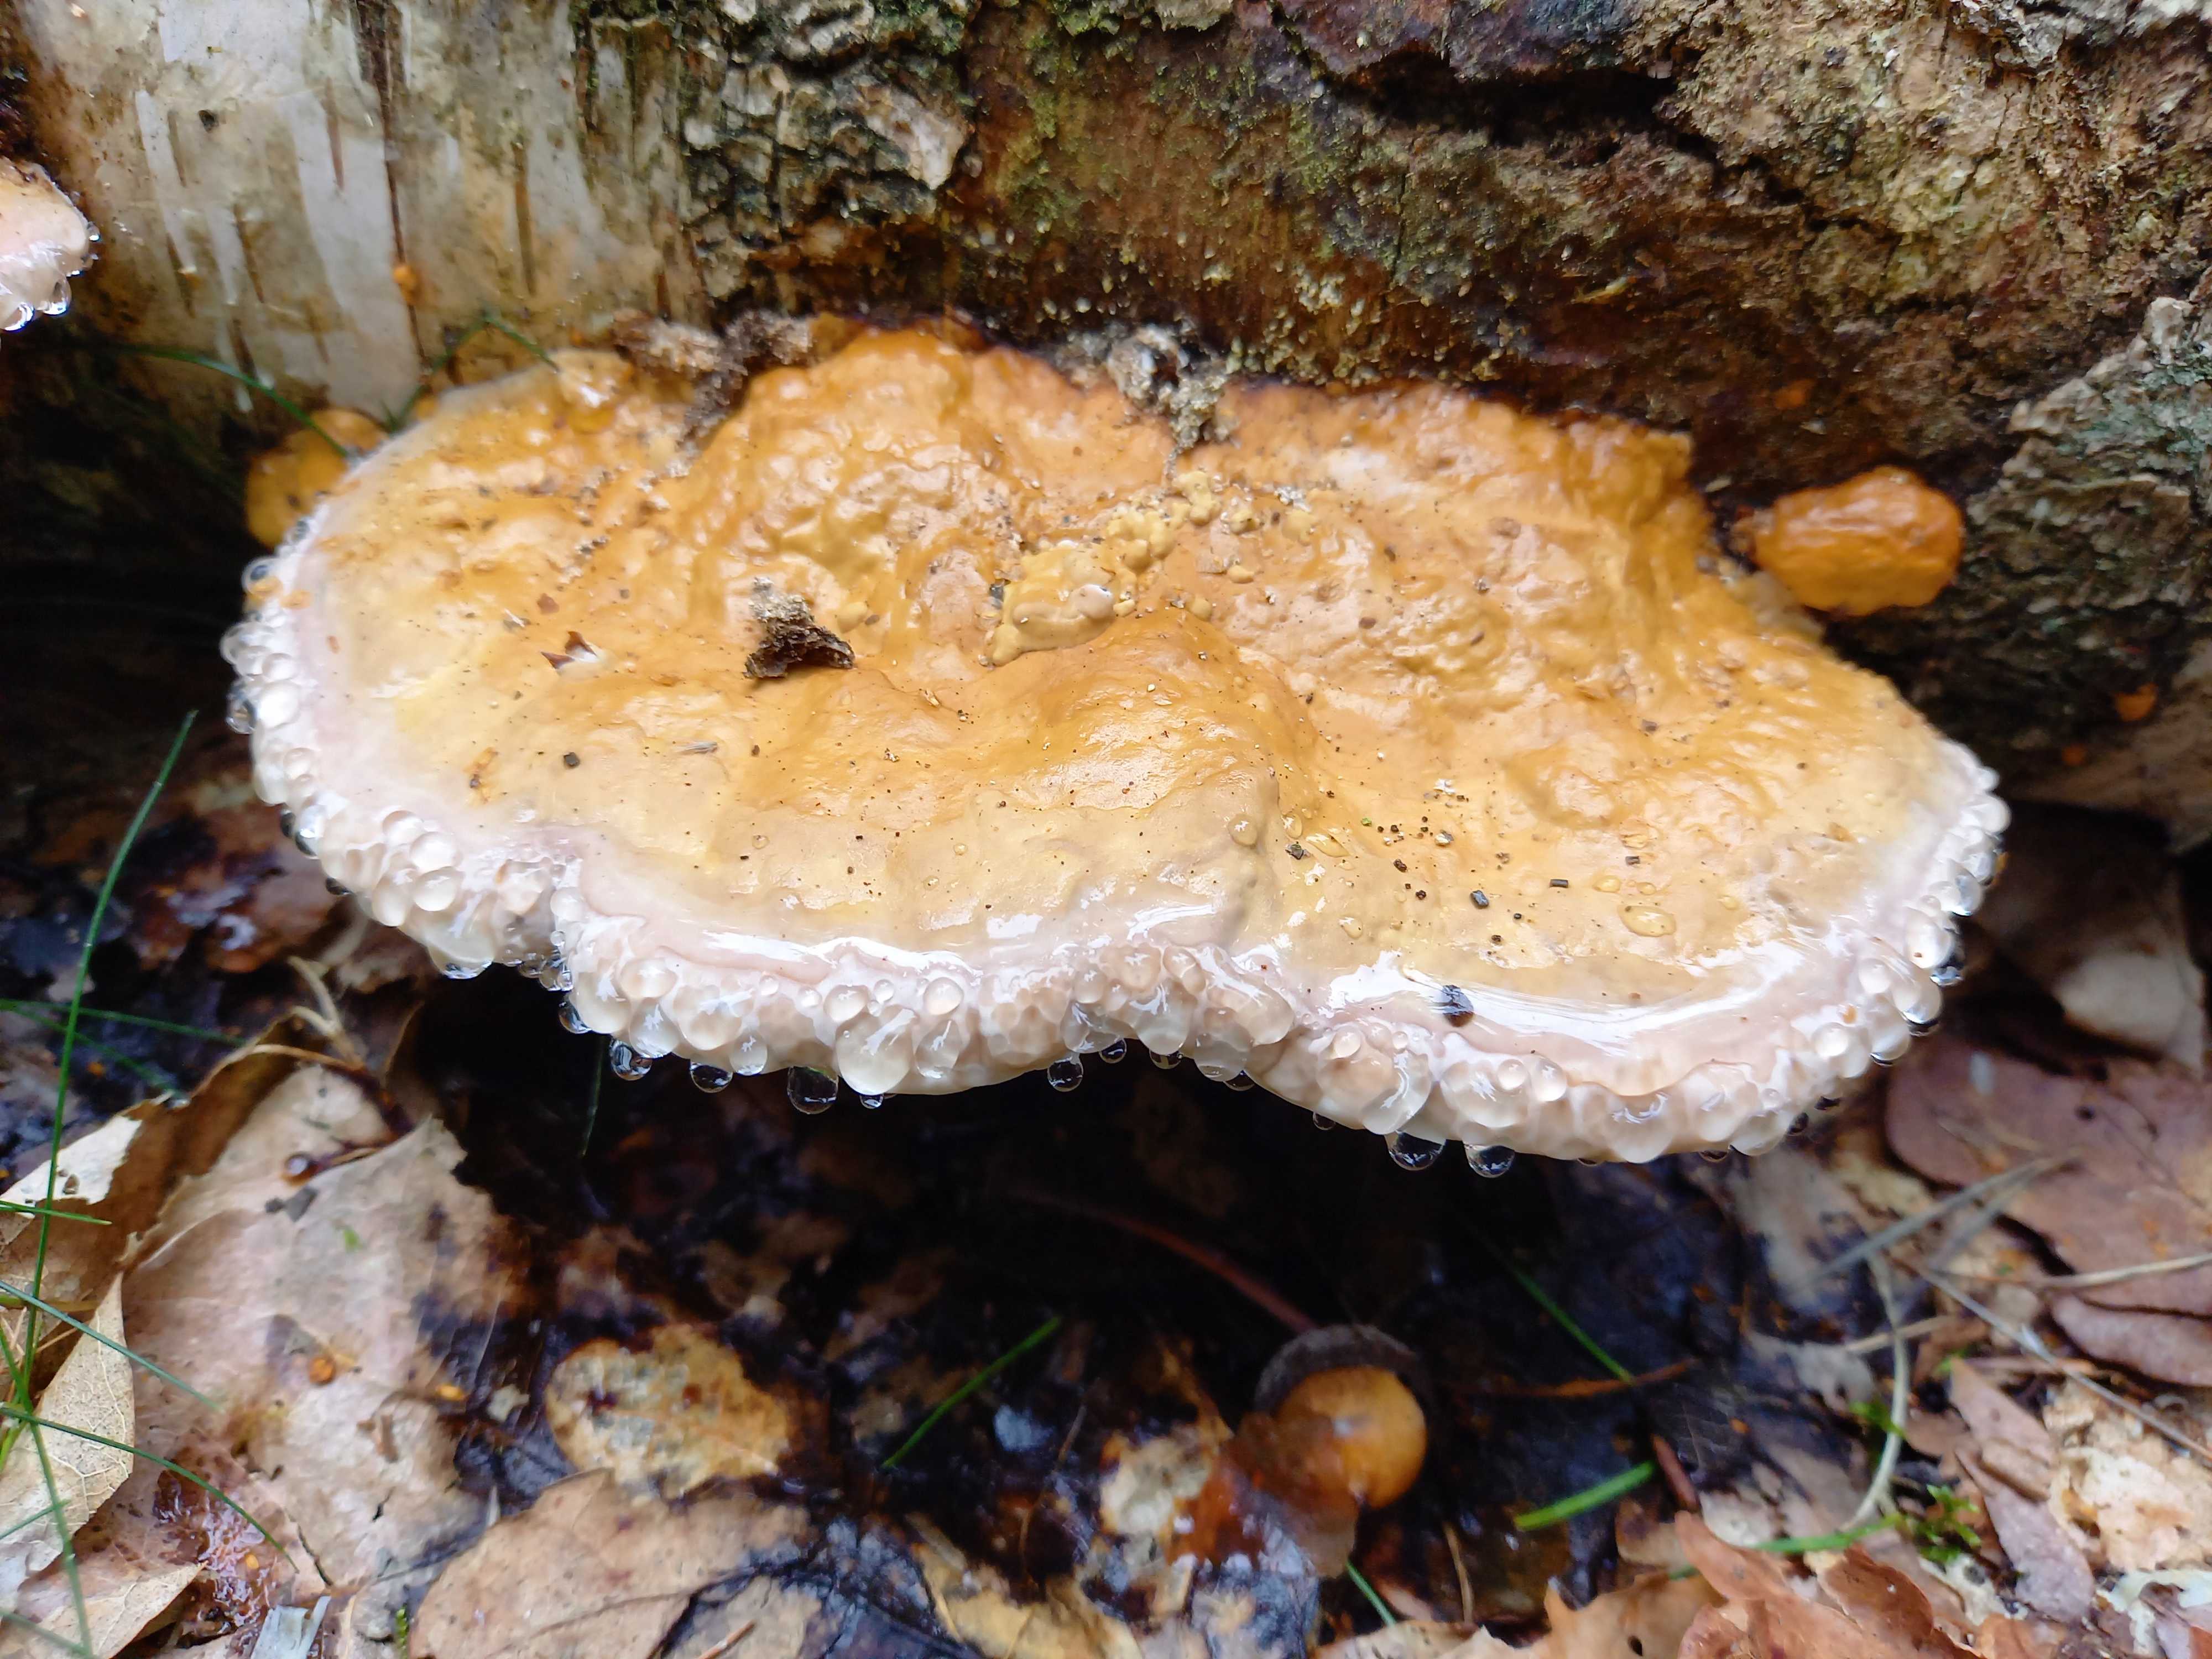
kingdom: Fungi
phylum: Basidiomycota
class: Agaricomycetes
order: Polyporales
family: Fomitopsidaceae
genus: Fomitopsis
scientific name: Fomitopsis pinicola
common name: randbæltet hovporesvamp
